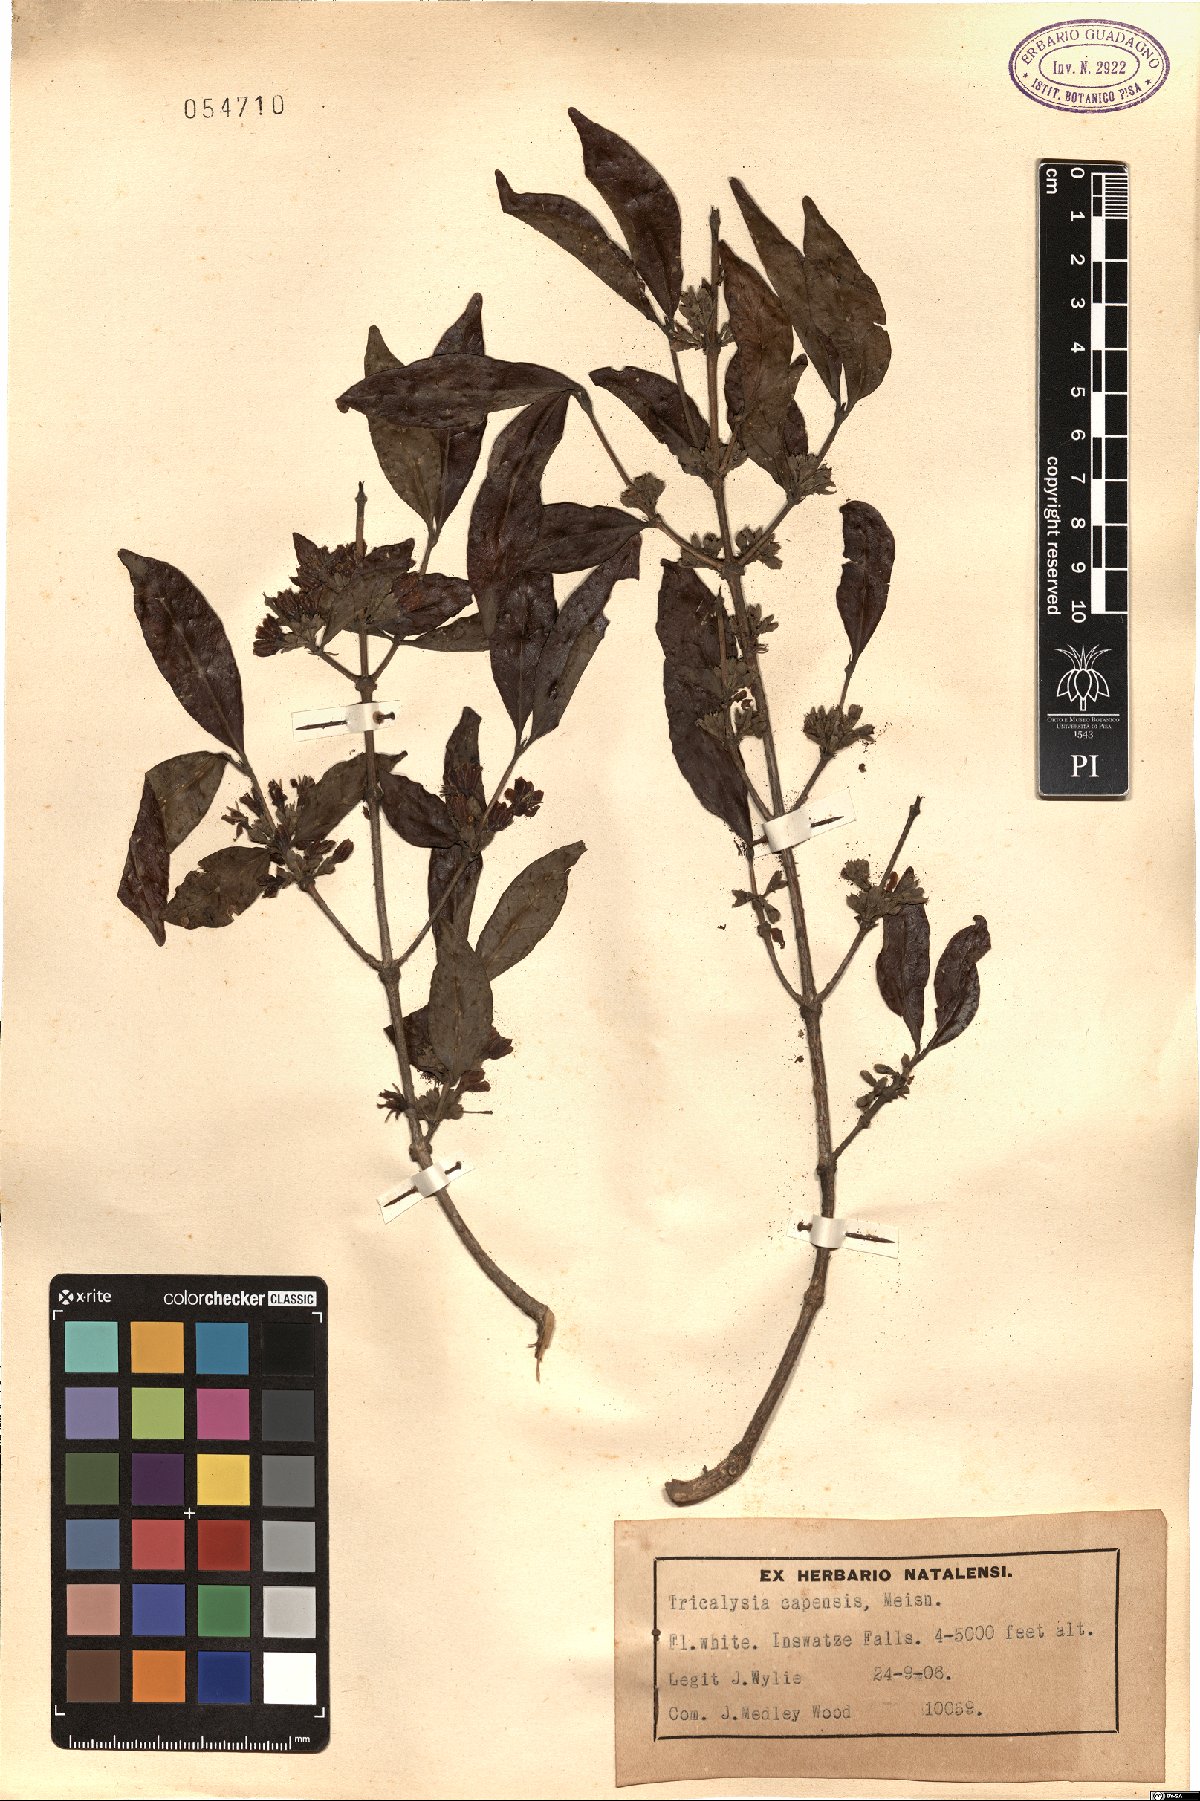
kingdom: Plantae
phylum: Tracheophyta
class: Magnoliopsida
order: Gentianales
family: Rubiaceae
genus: Tricalysia
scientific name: Tricalysia capensis
